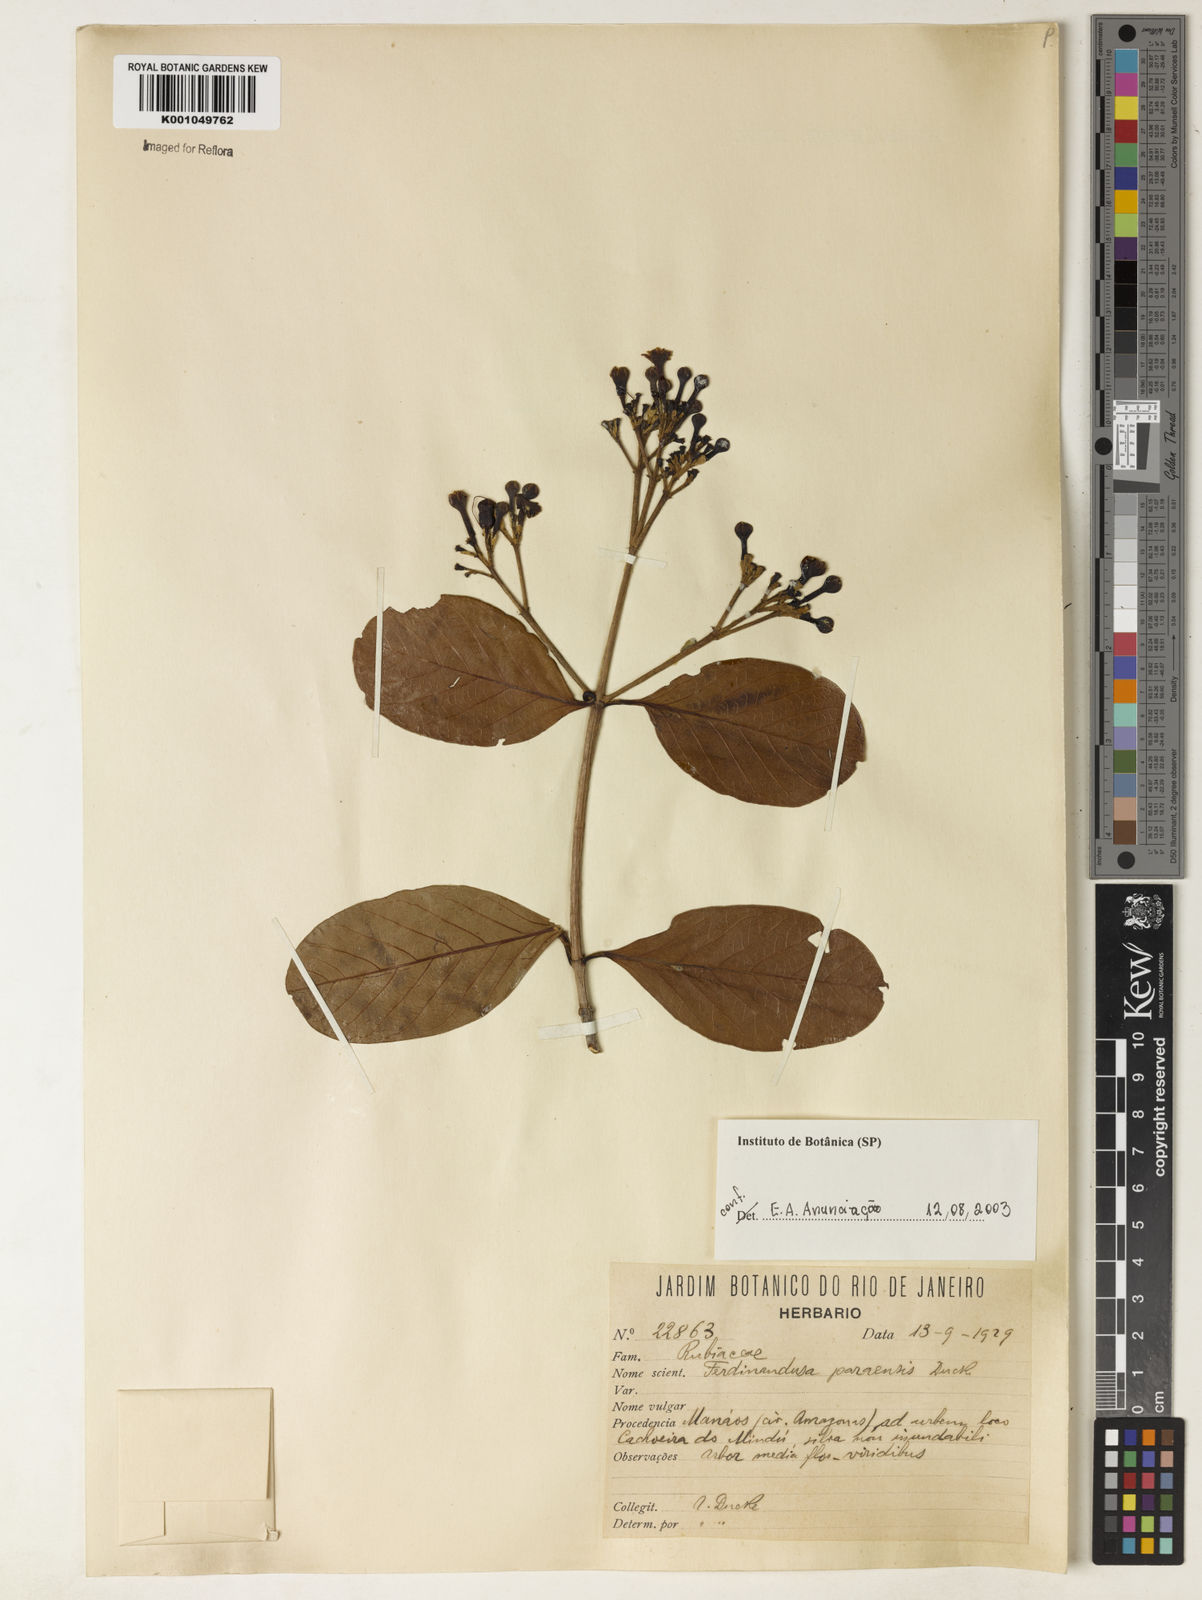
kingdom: Plantae
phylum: Tracheophyta
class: Magnoliopsida
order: Gentianales
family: Rubiaceae
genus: Ferdinandusa
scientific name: Ferdinandusa paraensis
